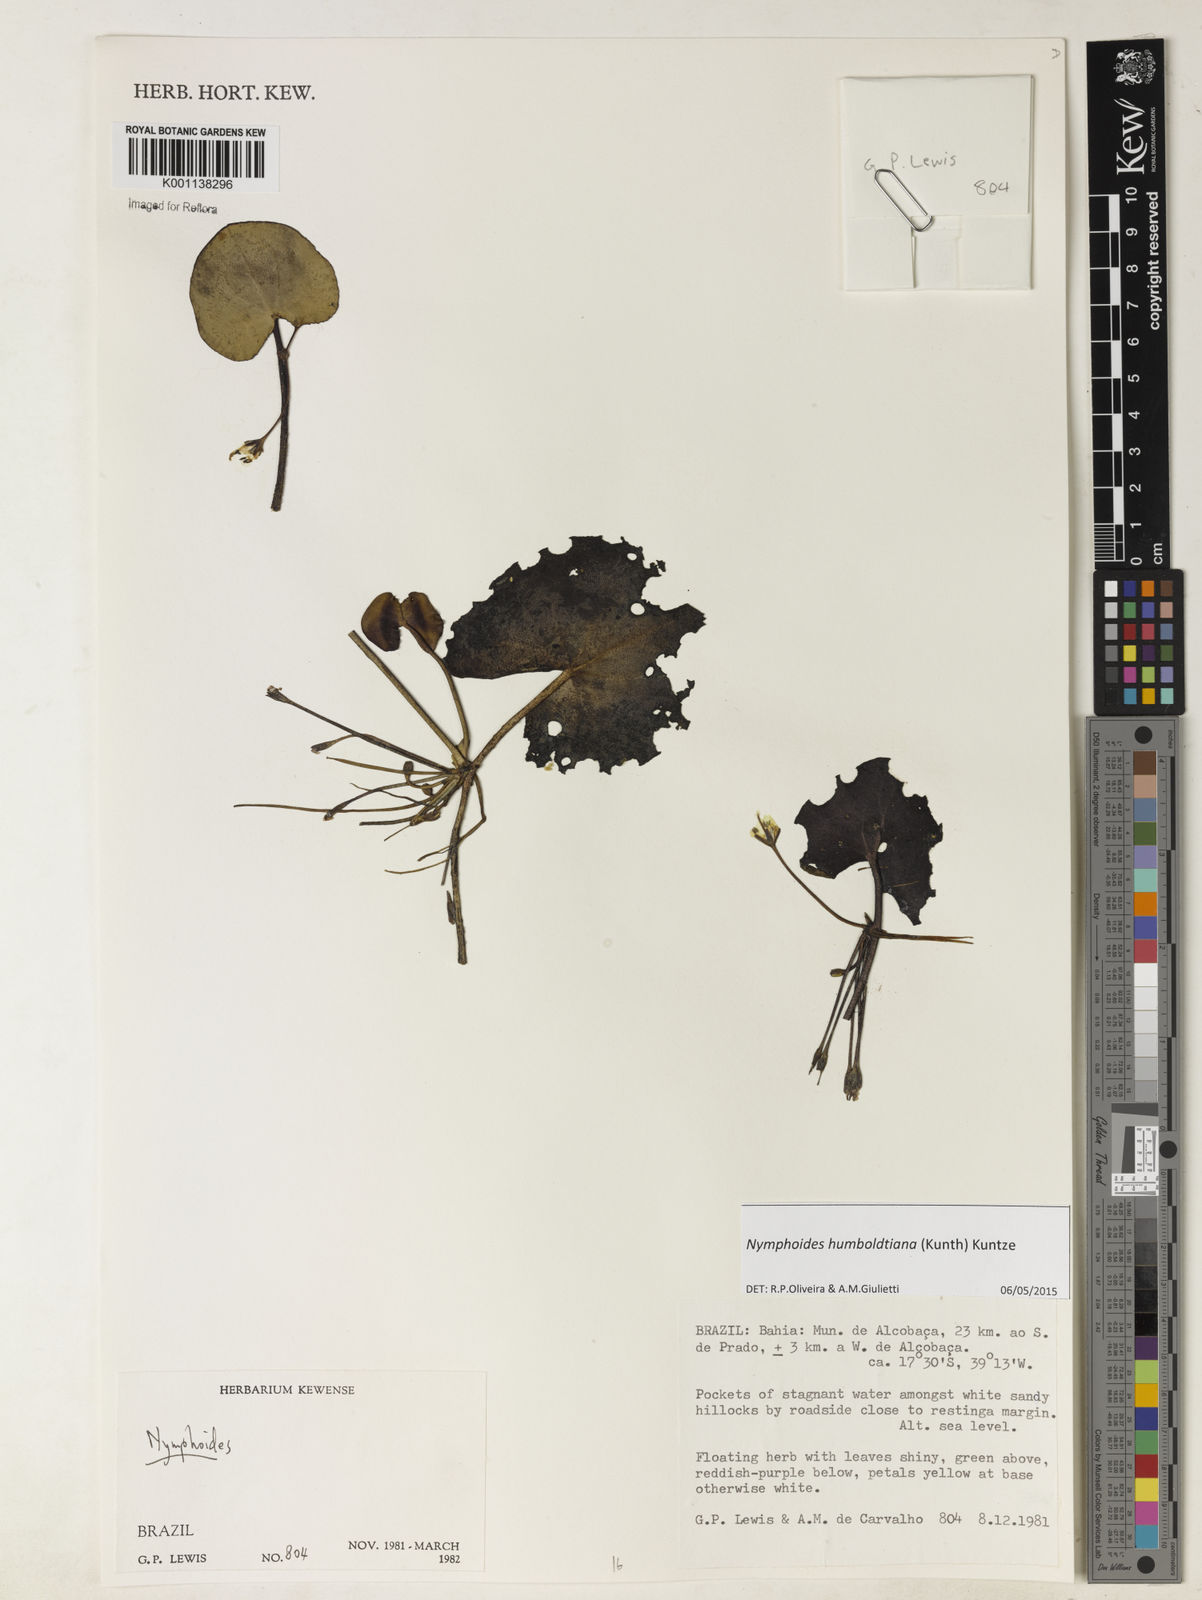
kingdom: Plantae
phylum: Tracheophyta
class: Magnoliopsida
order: Asterales
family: Menyanthaceae
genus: Nymphoides
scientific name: Nymphoides
